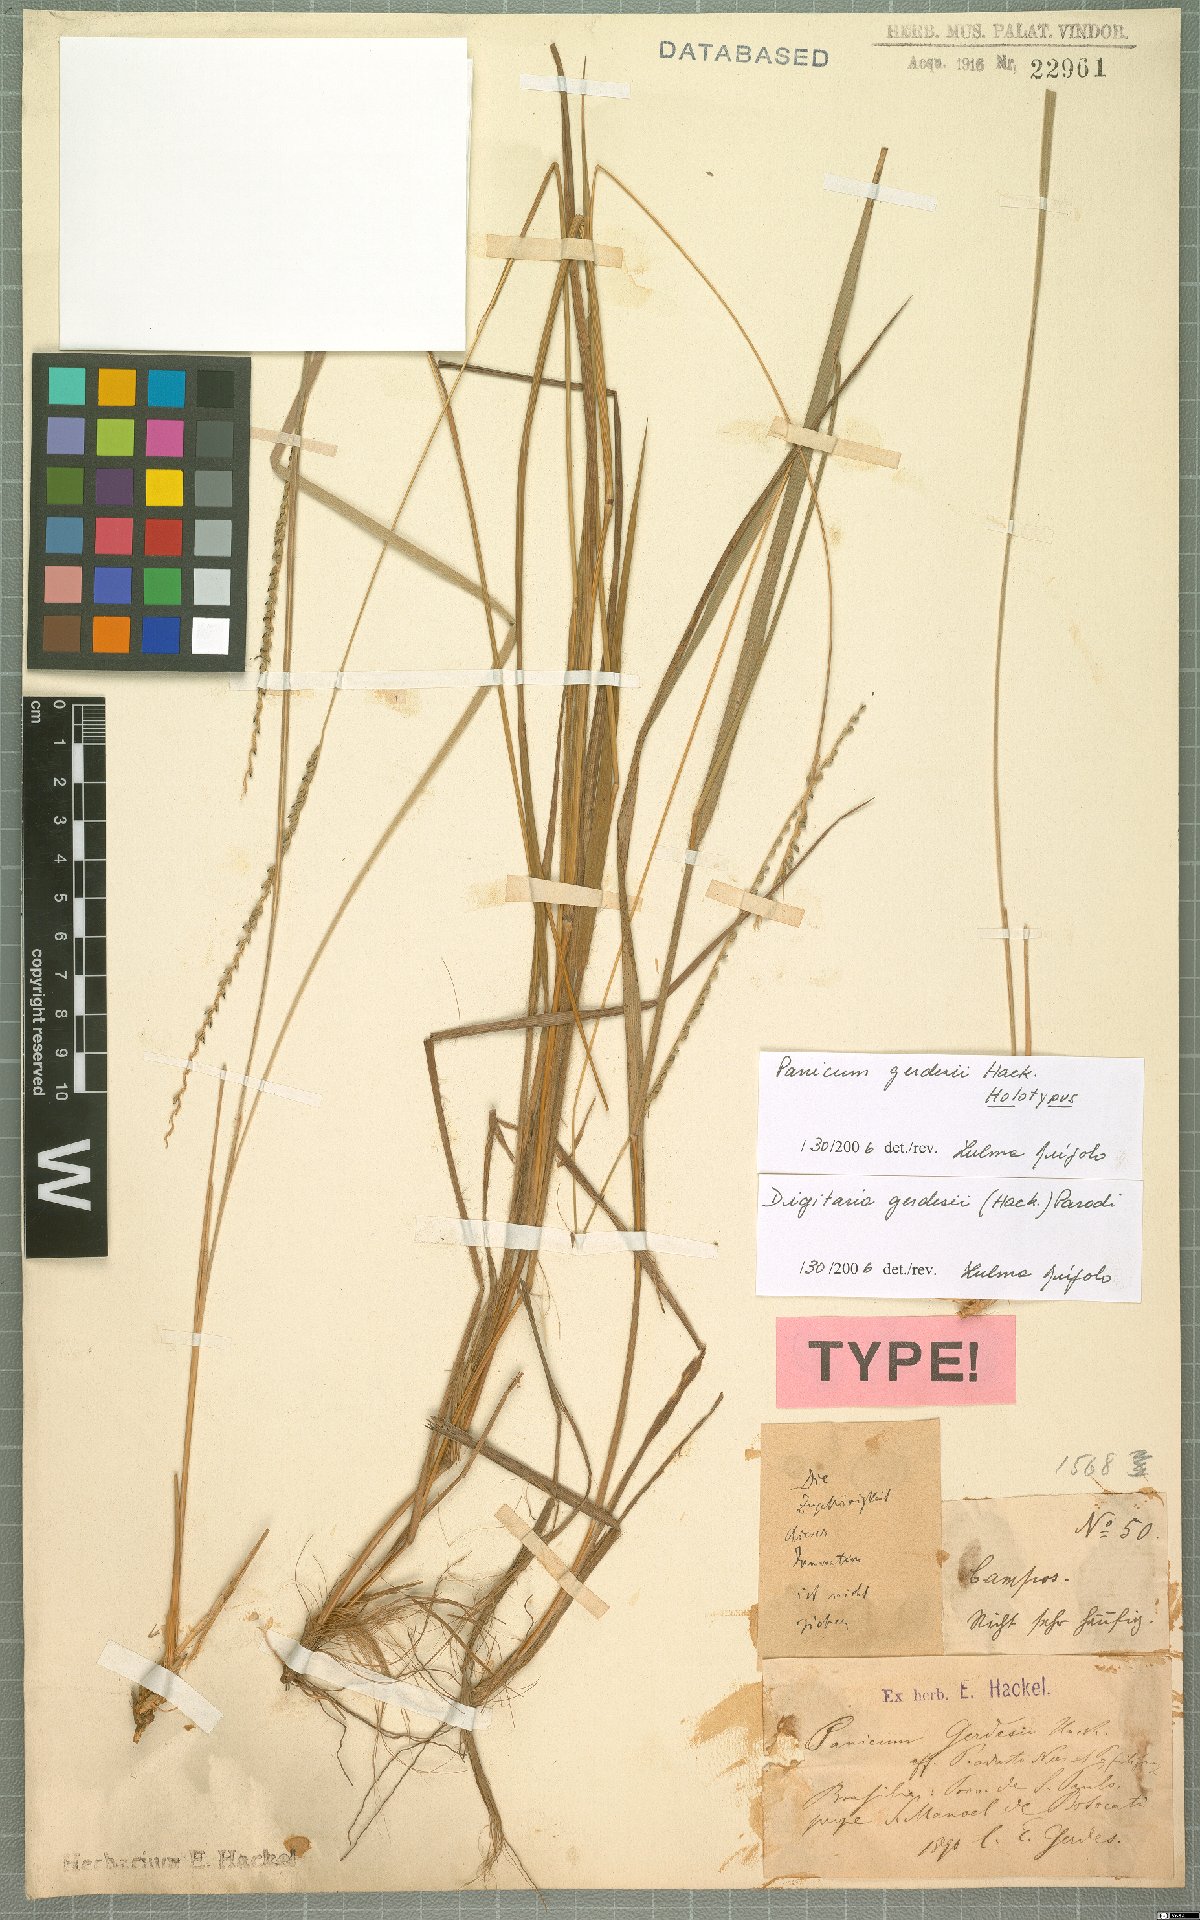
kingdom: Plantae
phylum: Tracheophyta
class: Liliopsida
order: Poales
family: Poaceae
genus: Digitaria
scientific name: Digitaria gerdesii
